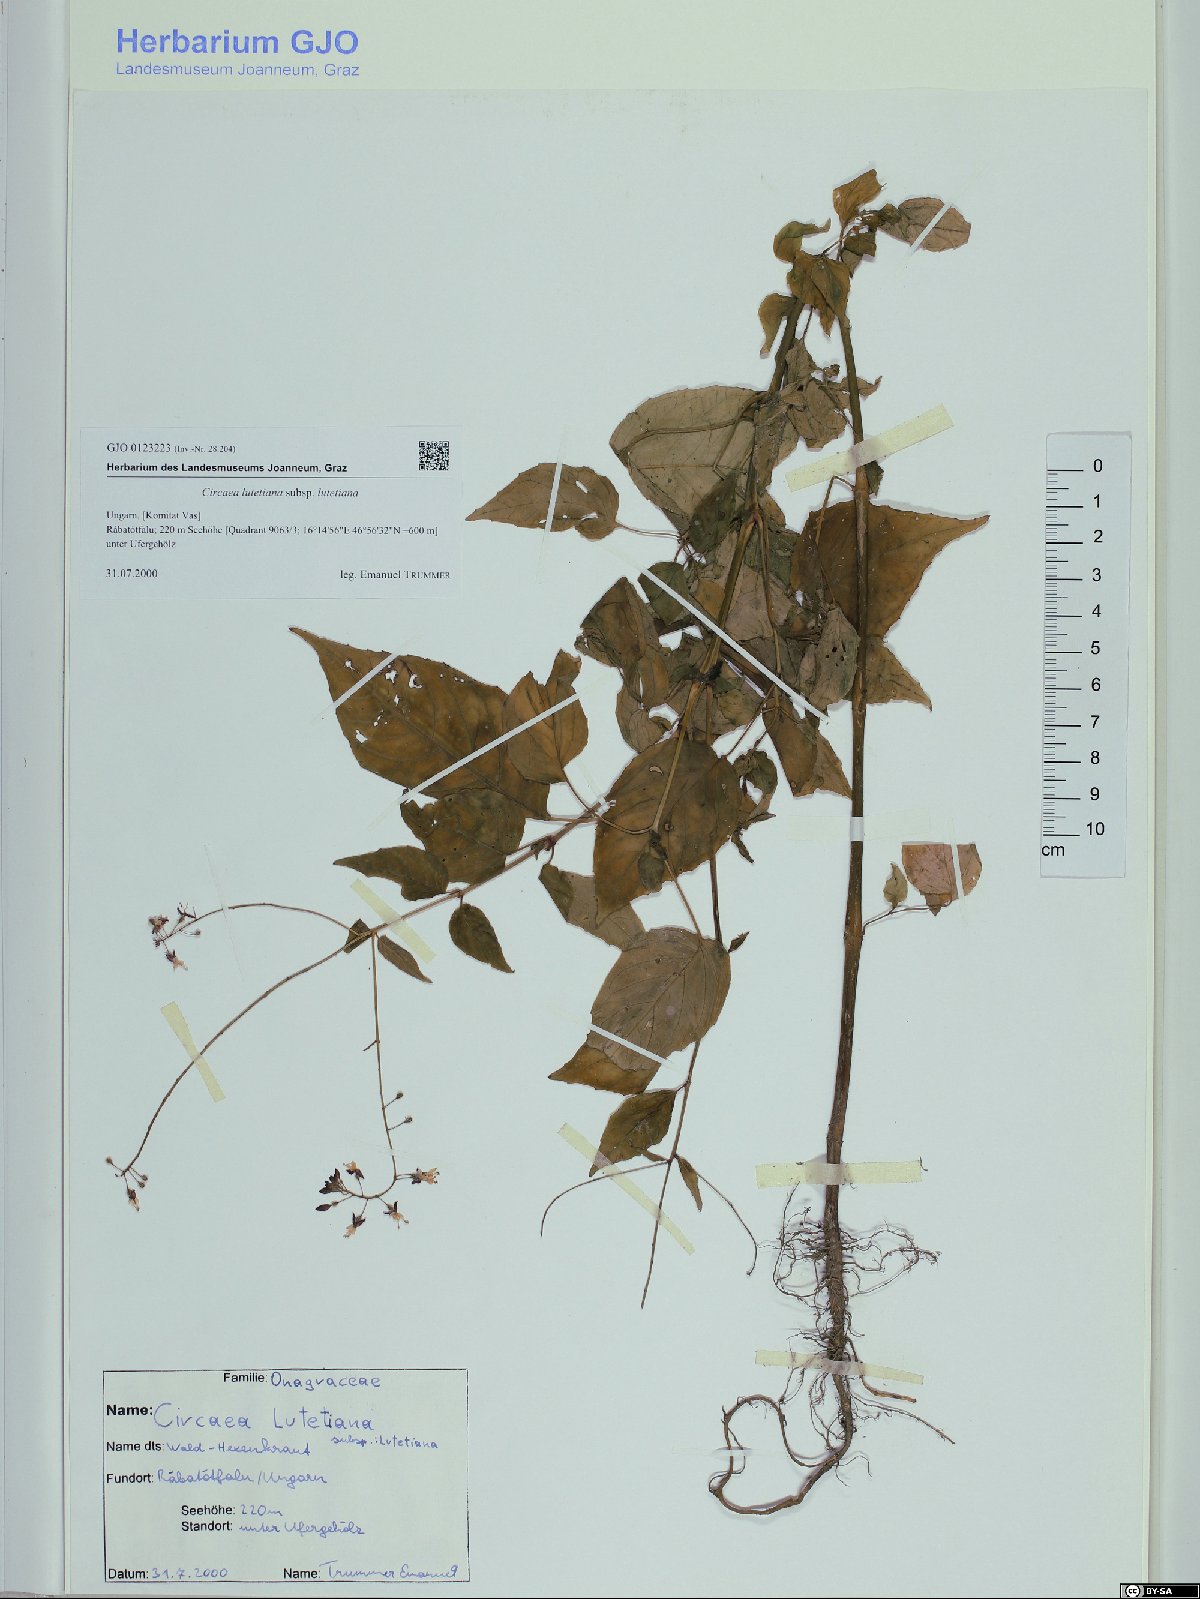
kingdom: Plantae
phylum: Tracheophyta
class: Magnoliopsida
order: Myrtales
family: Onagraceae
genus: Circaea
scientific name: Circaea lutetiana
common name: Enchanter's-nightshade
